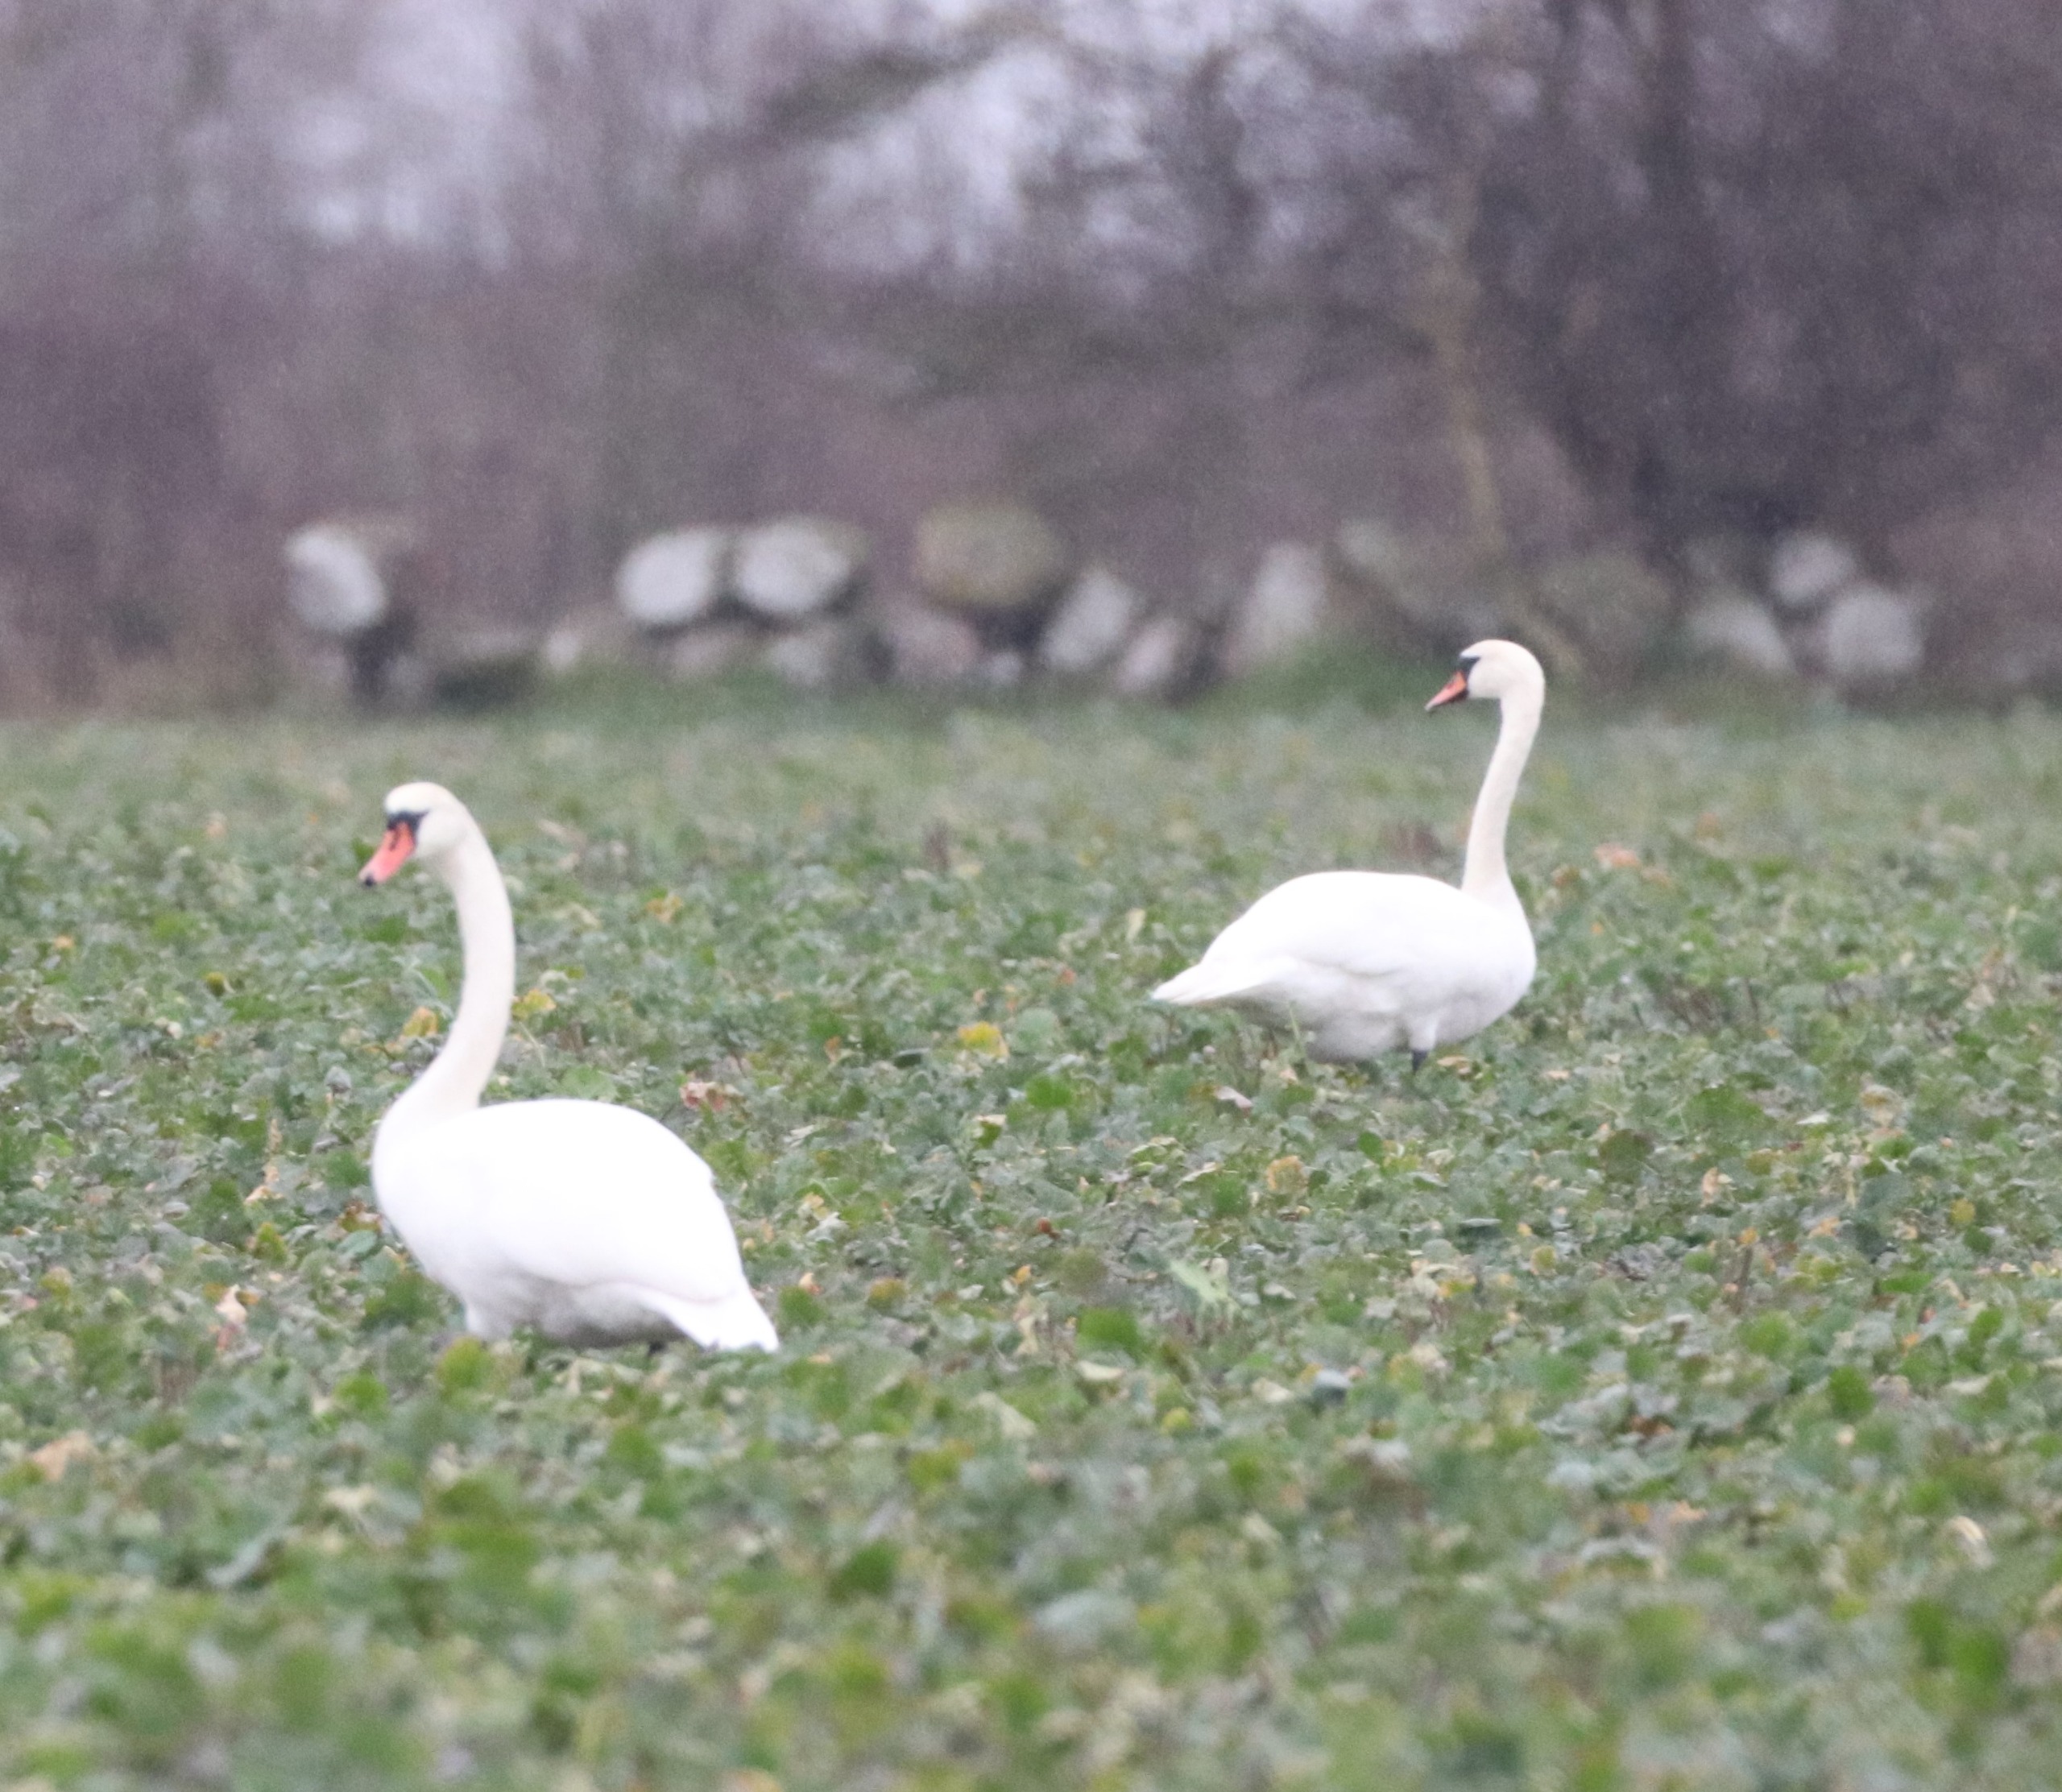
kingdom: Animalia
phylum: Chordata
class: Aves
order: Anseriformes
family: Anatidae
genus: Cygnus
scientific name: Cygnus olor
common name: Knopsvane
